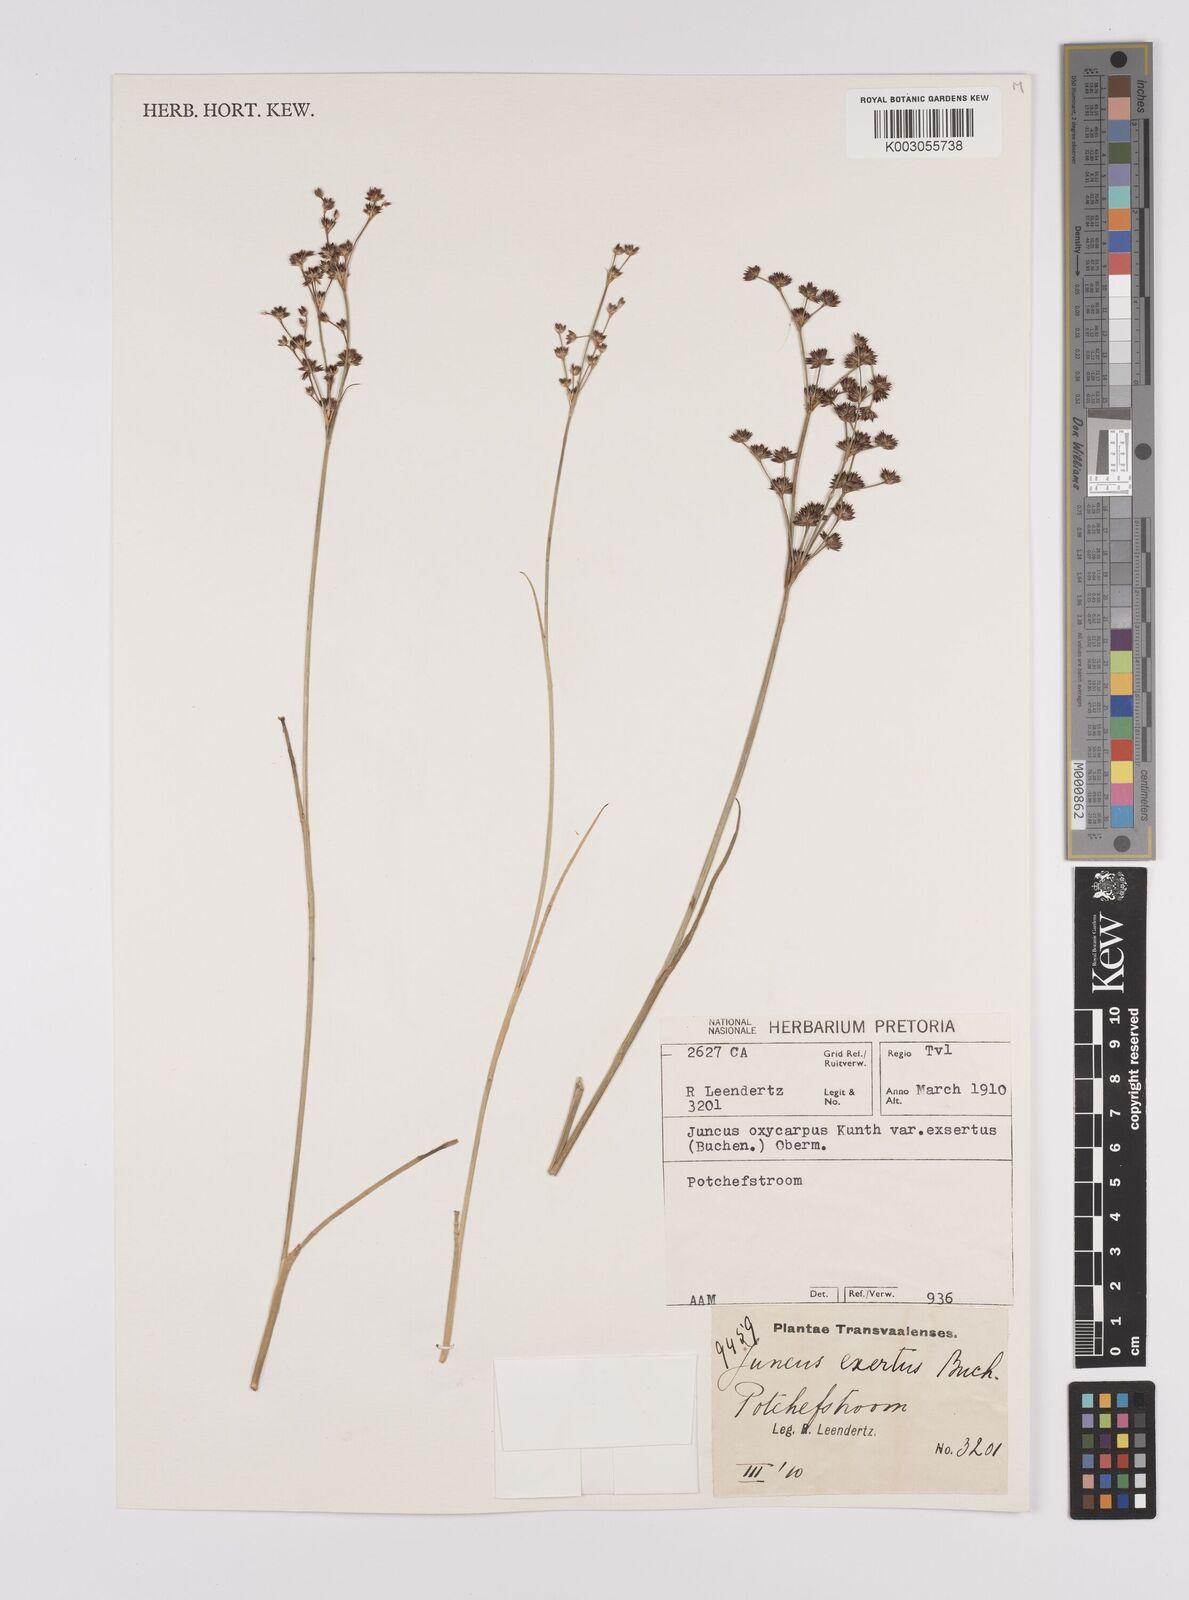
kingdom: Plantae
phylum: Tracheophyta
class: Liliopsida
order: Poales
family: Juncaceae
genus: Juncus
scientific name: Juncus exsertus
